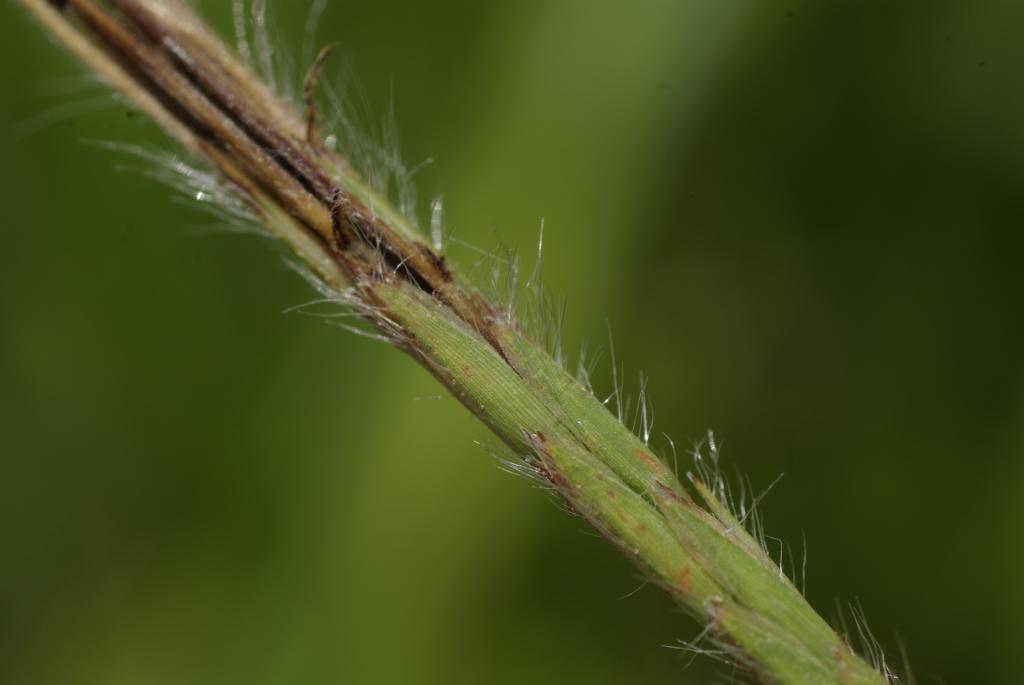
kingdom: Plantae
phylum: Tracheophyta
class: Liliopsida
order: Poales
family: Poaceae
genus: Heteropogon
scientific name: Heteropogon contortus
